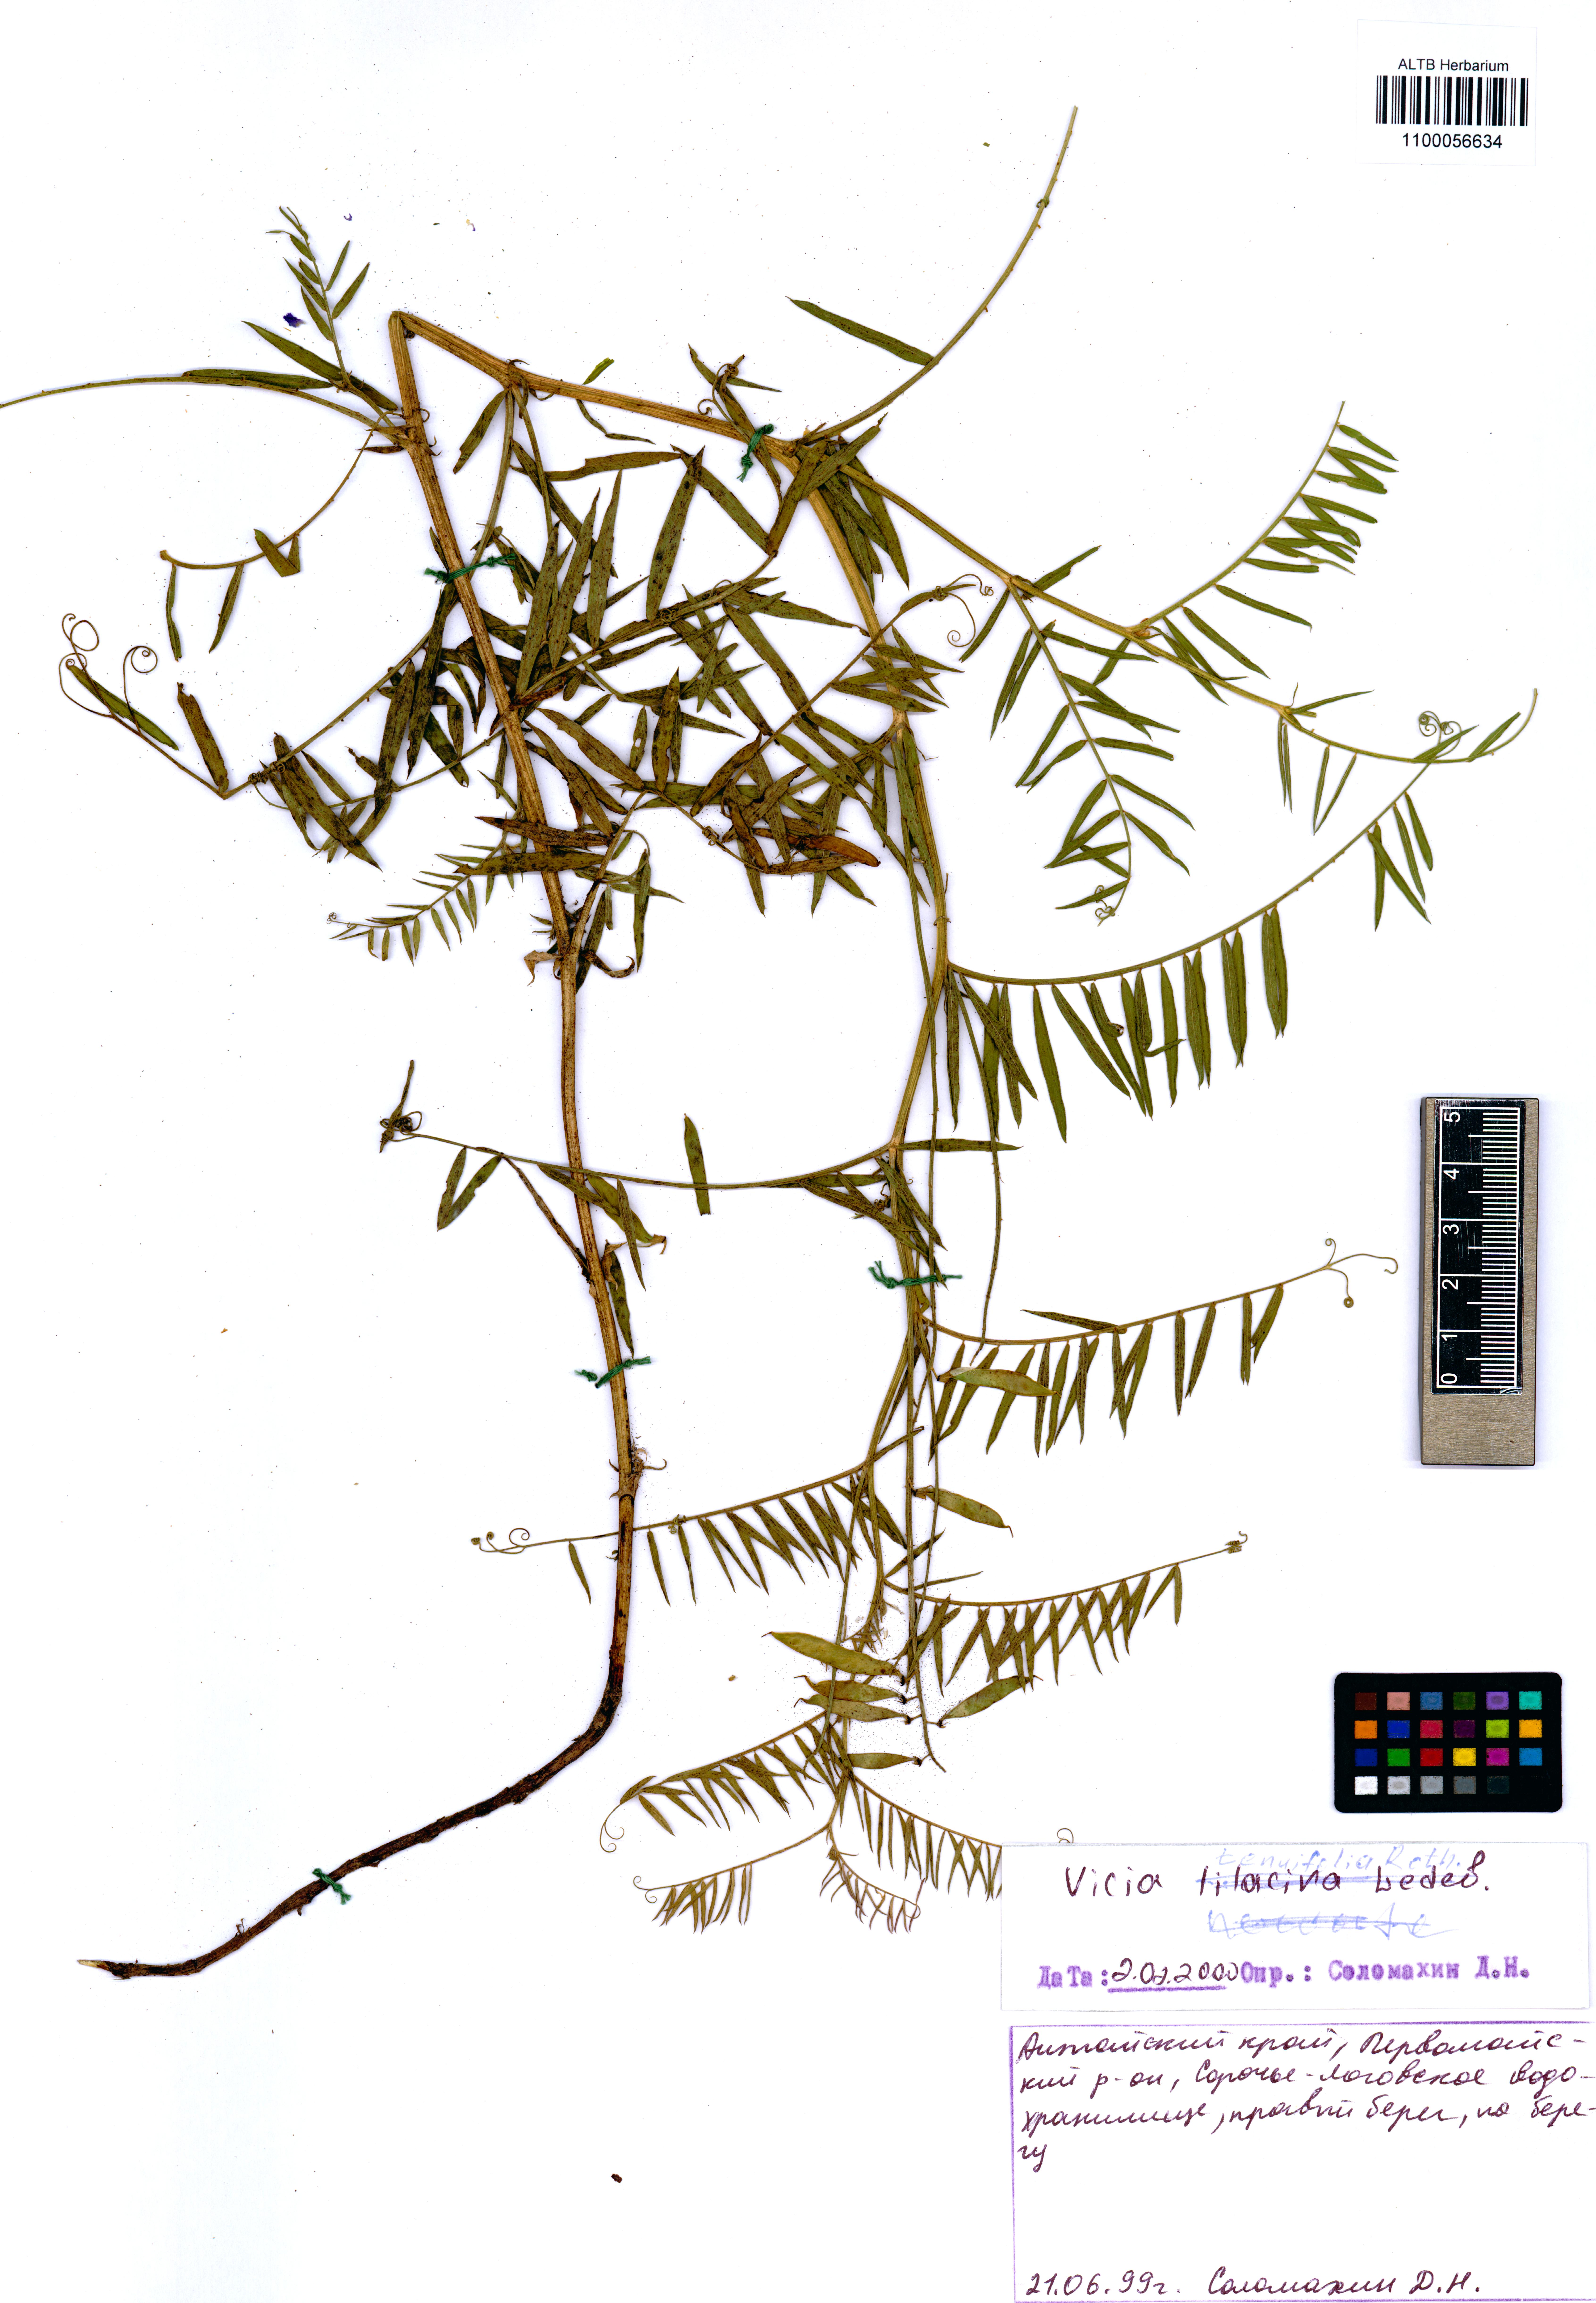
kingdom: Plantae
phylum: Tracheophyta
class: Magnoliopsida
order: Fabales
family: Fabaceae
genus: Vicia
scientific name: Vicia tenuifolia
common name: Fine-leaved vetch
